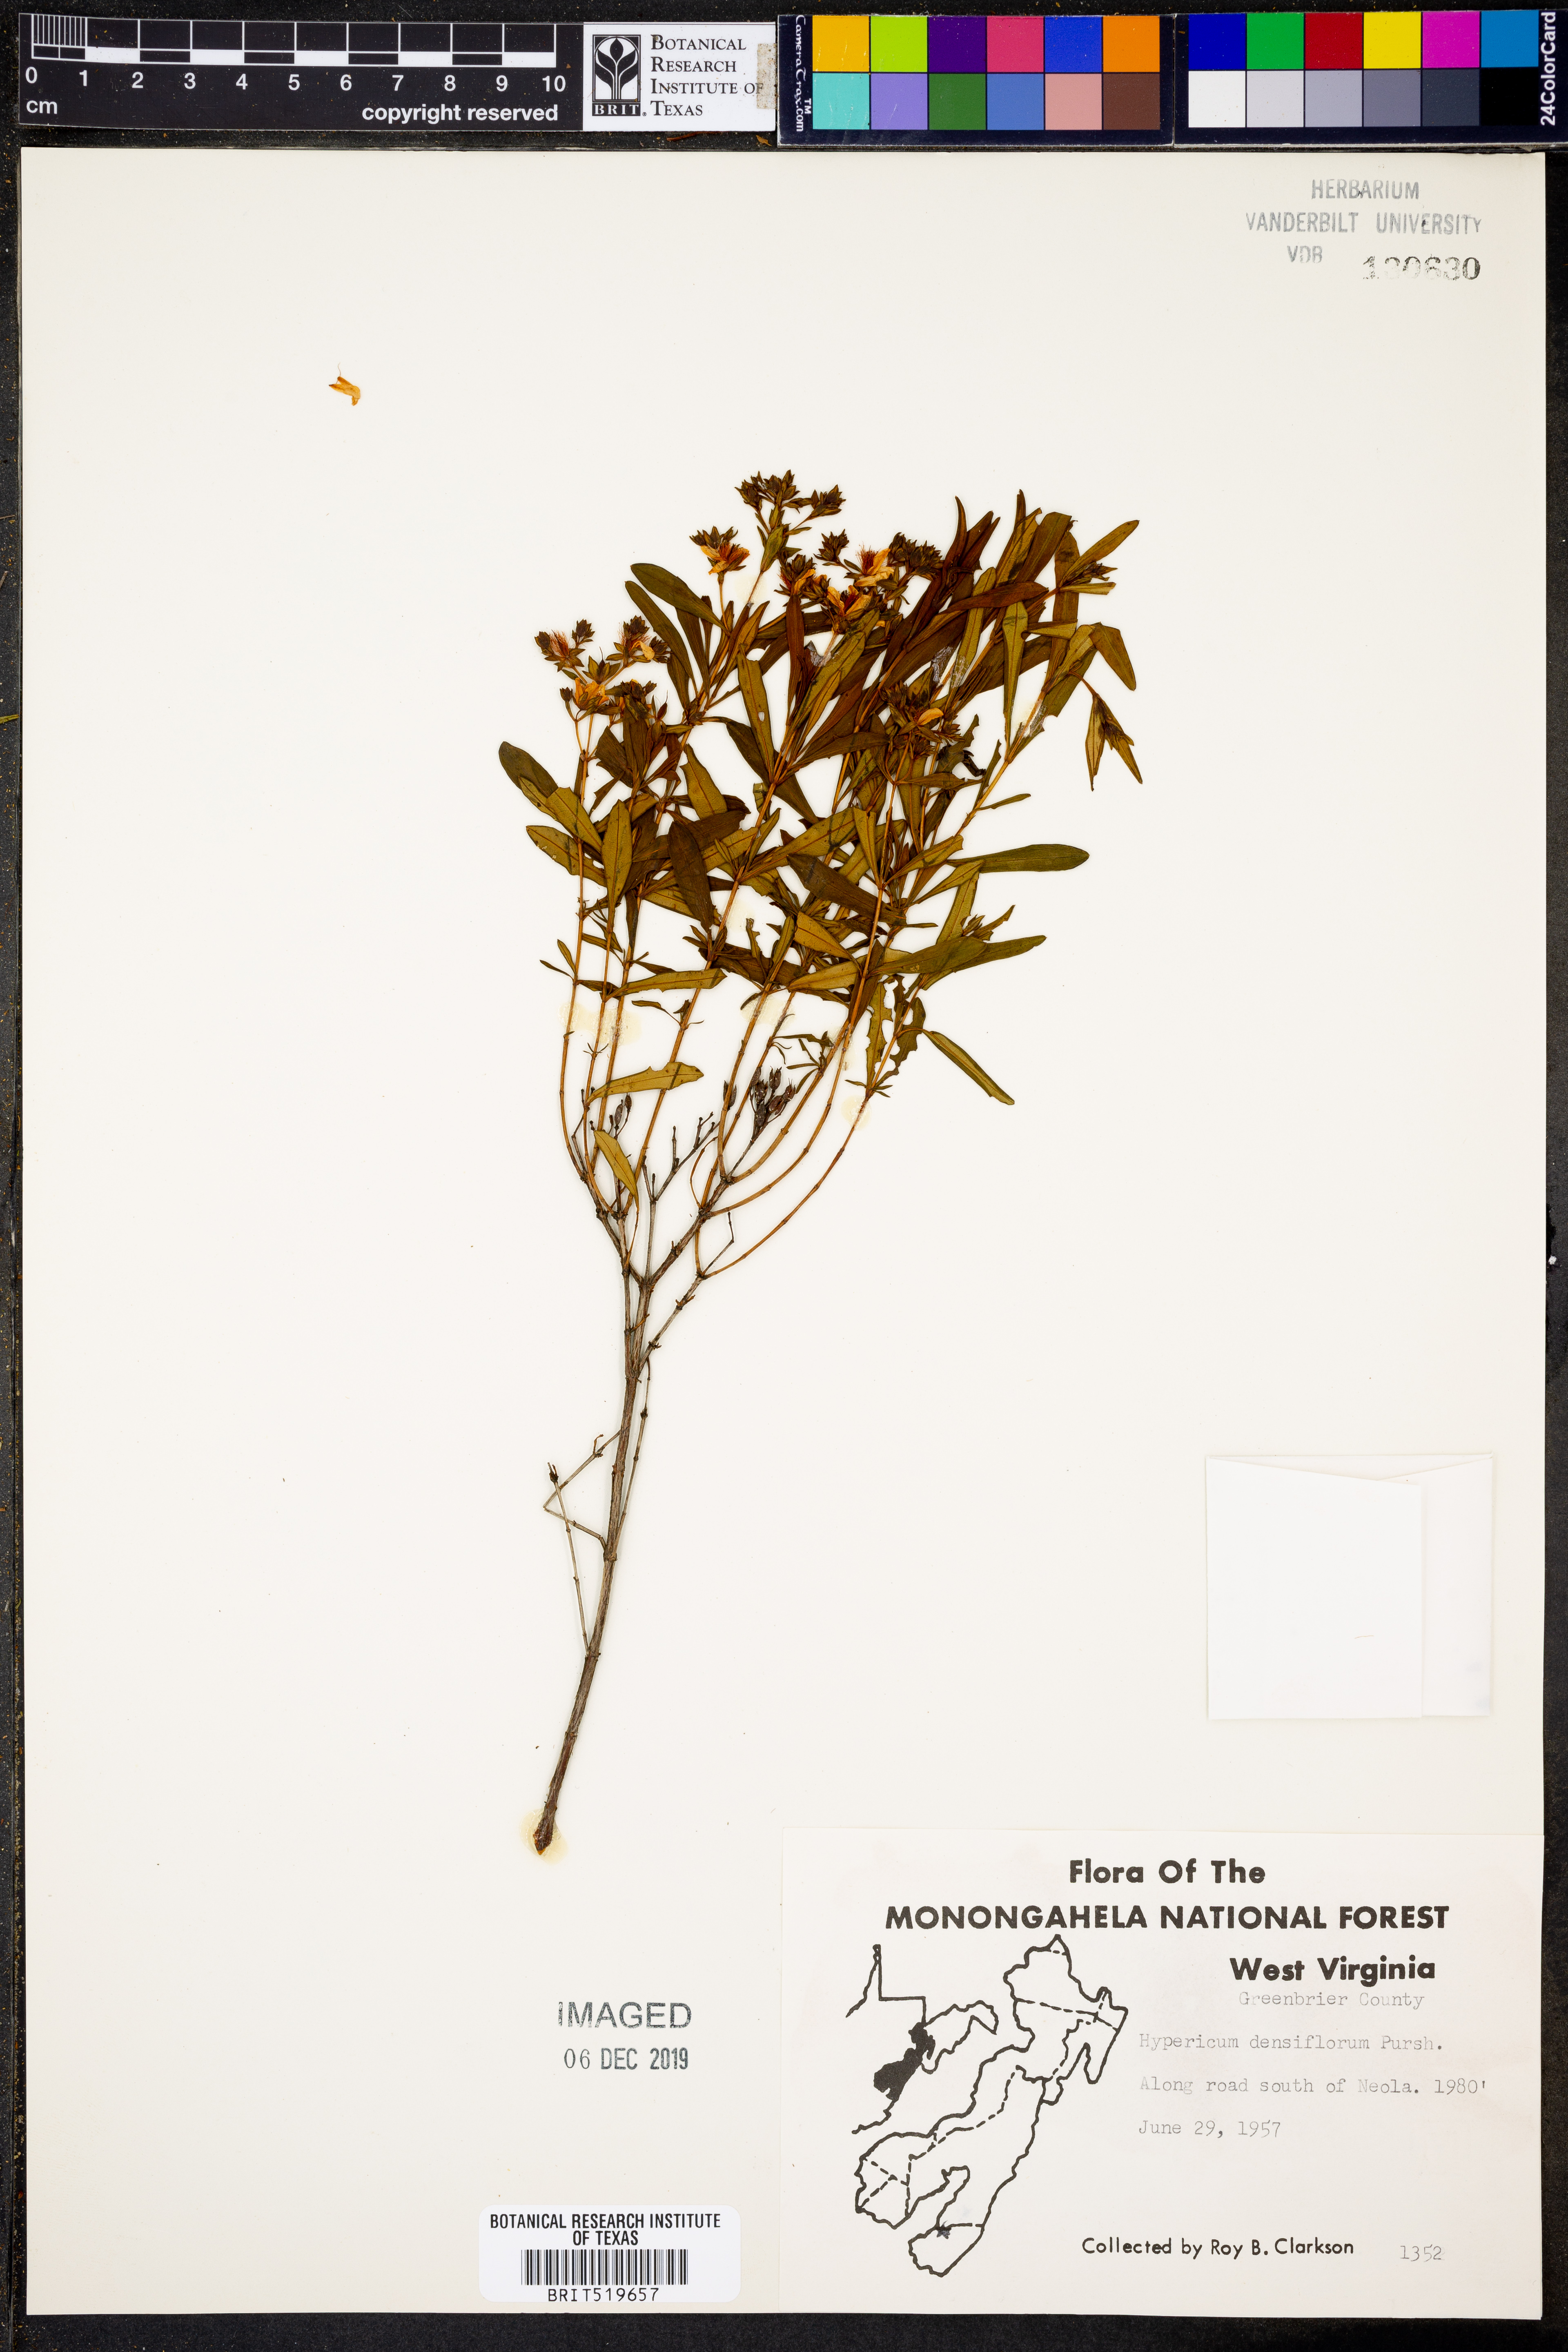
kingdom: Plantae
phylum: Tracheophyta
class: Magnoliopsida
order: Malpighiales
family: Hypericaceae
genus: Hypericum
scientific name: Hypericum densiflorum
